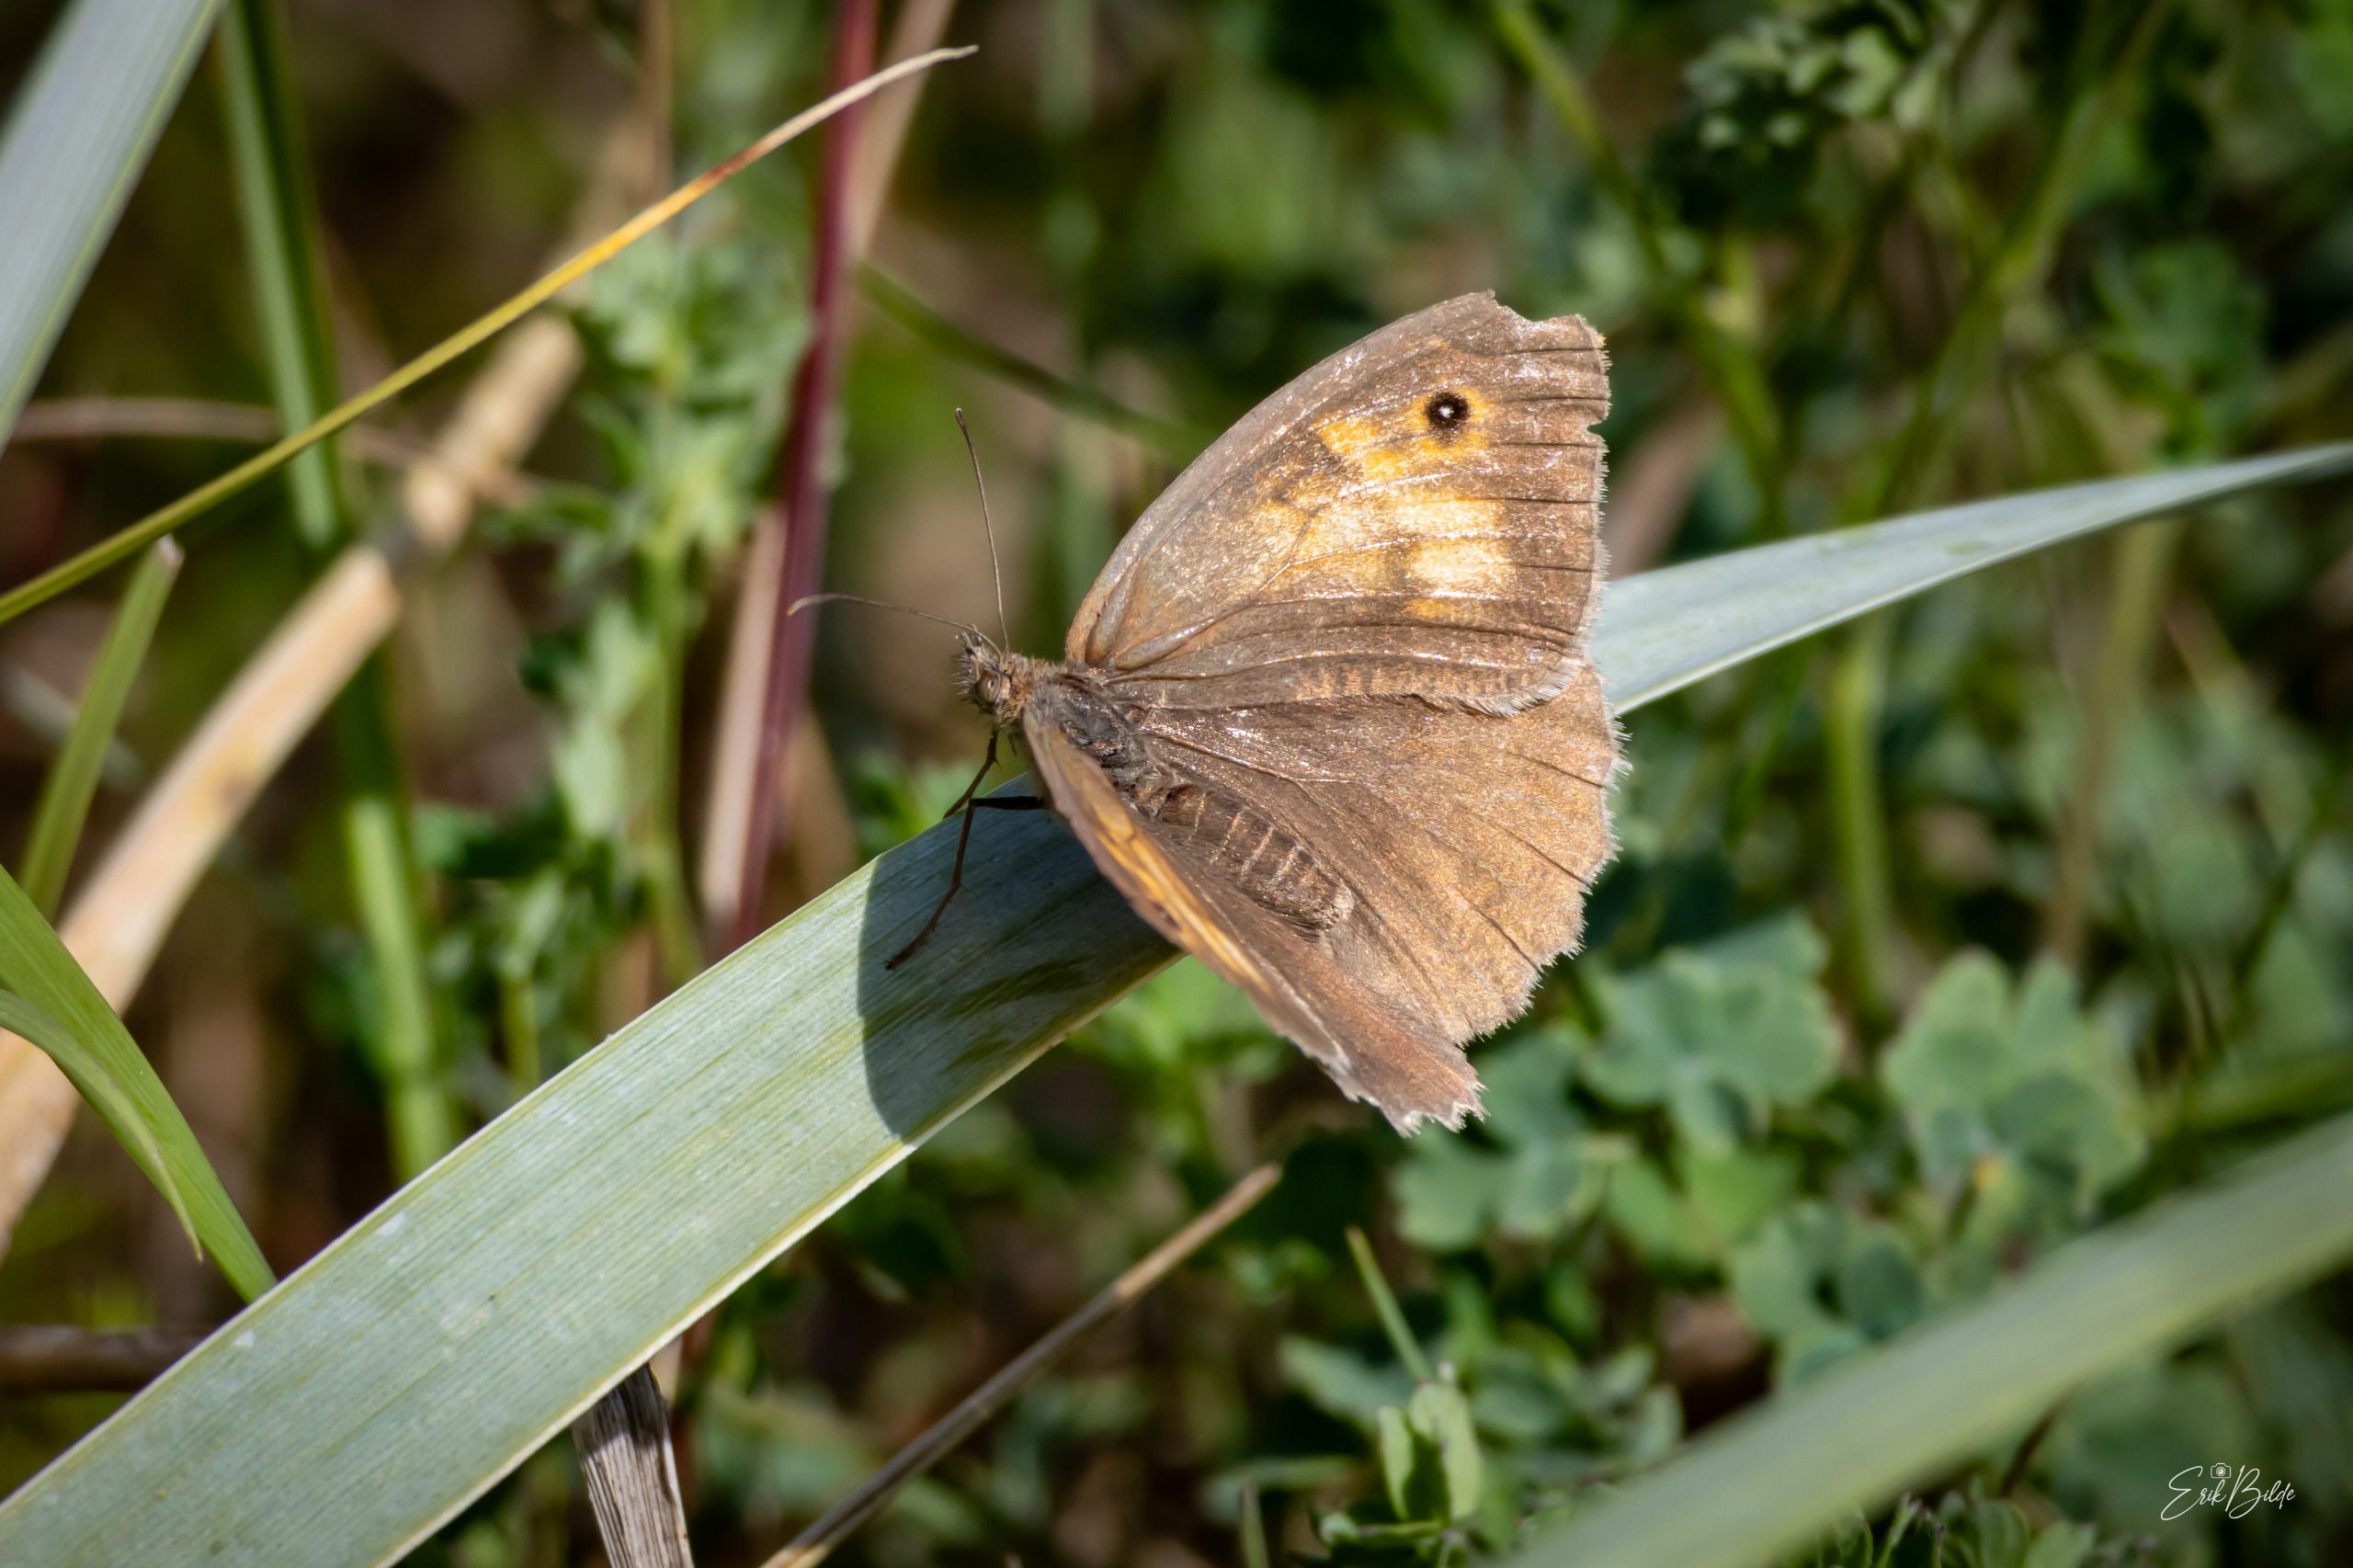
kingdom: Animalia
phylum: Arthropoda
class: Insecta
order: Lepidoptera
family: Nymphalidae
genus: Maniola
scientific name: Maniola jurtina
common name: Græsrandøje
